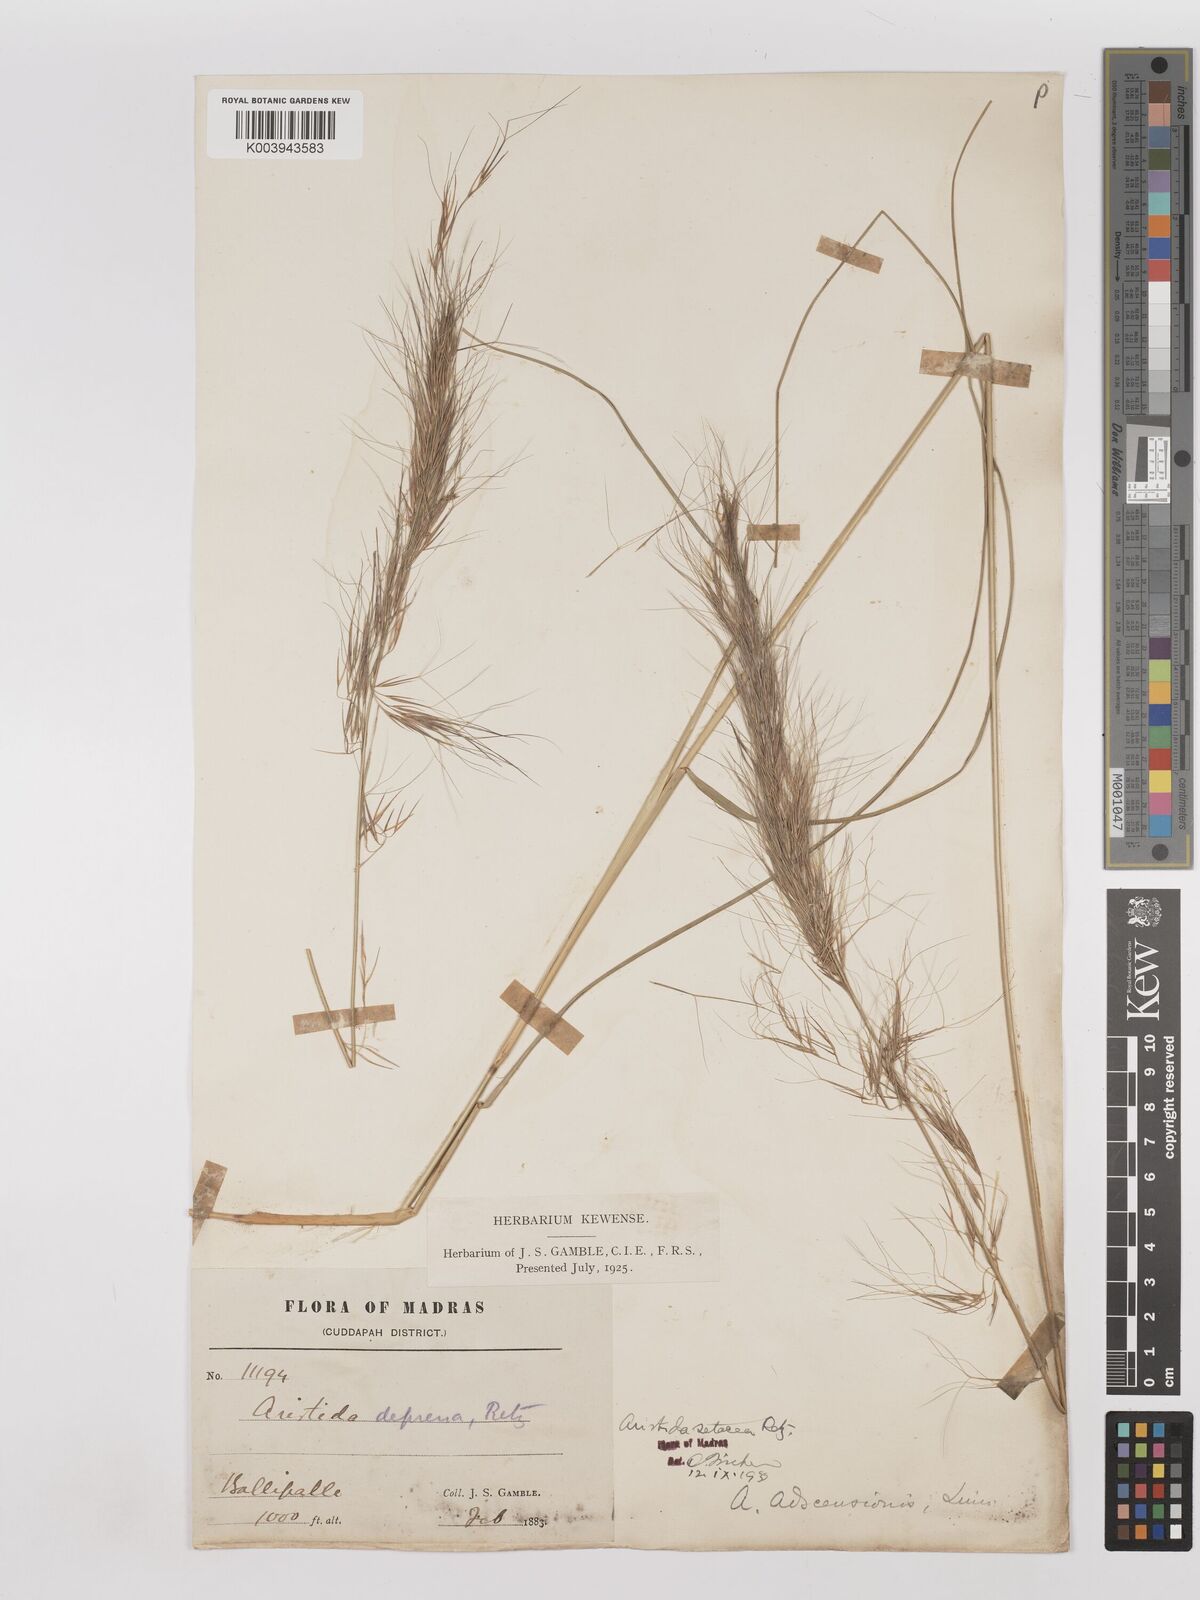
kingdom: Plantae
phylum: Tracheophyta
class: Liliopsida
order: Poales
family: Poaceae
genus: Aristida
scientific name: Aristida setacea
